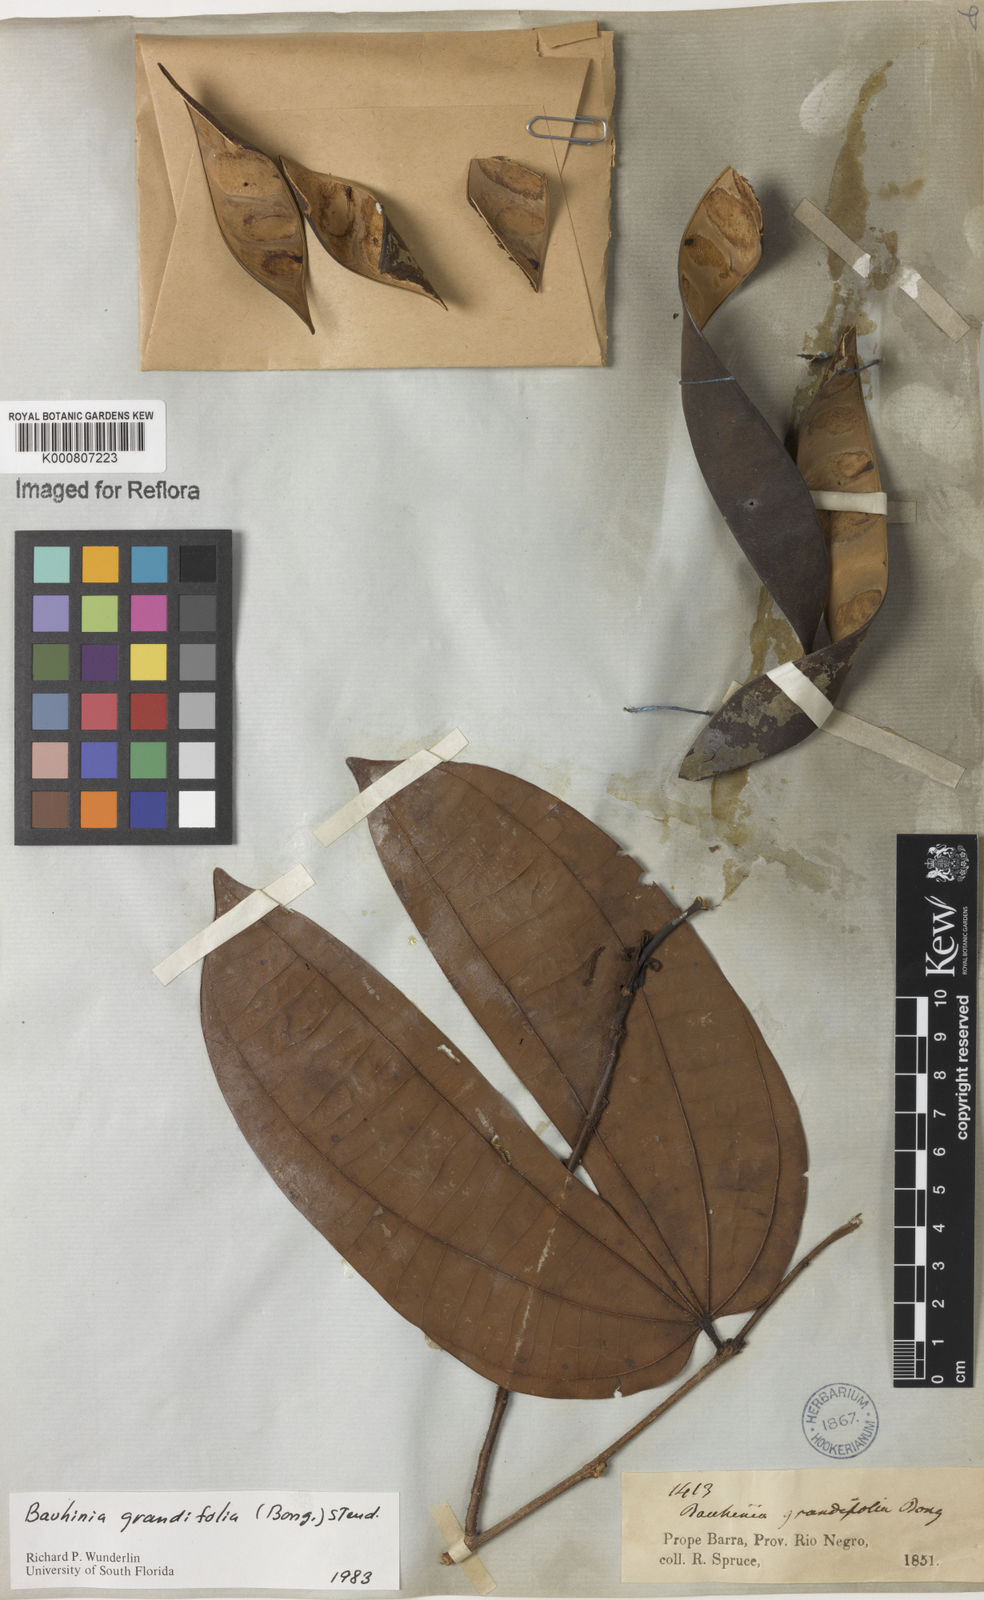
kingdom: Plantae
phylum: Tracheophyta
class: Magnoliopsida
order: Fabales
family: Fabaceae
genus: Bauhinia
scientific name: Bauhinia
